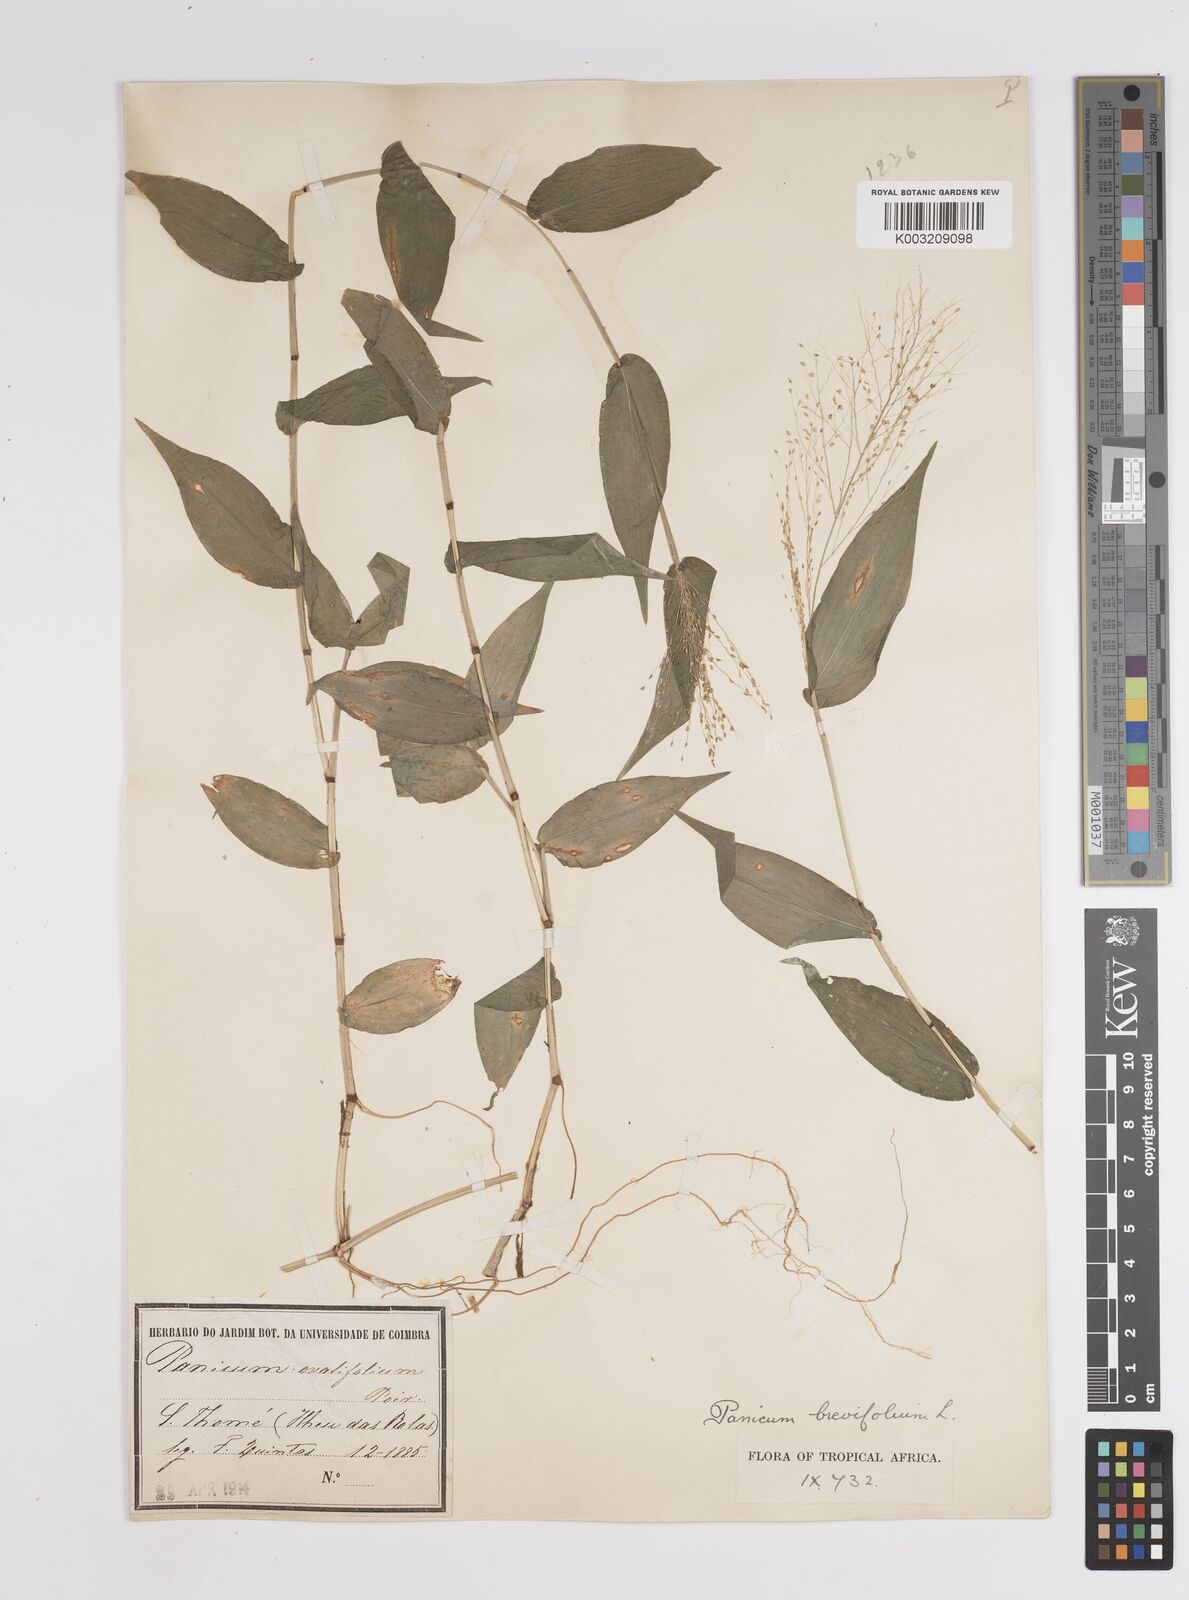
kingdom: Plantae
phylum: Tracheophyta
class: Liliopsida
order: Poales
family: Poaceae
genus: Panicum
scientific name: Panicum brevifolium
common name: Shortleaf panic grass
